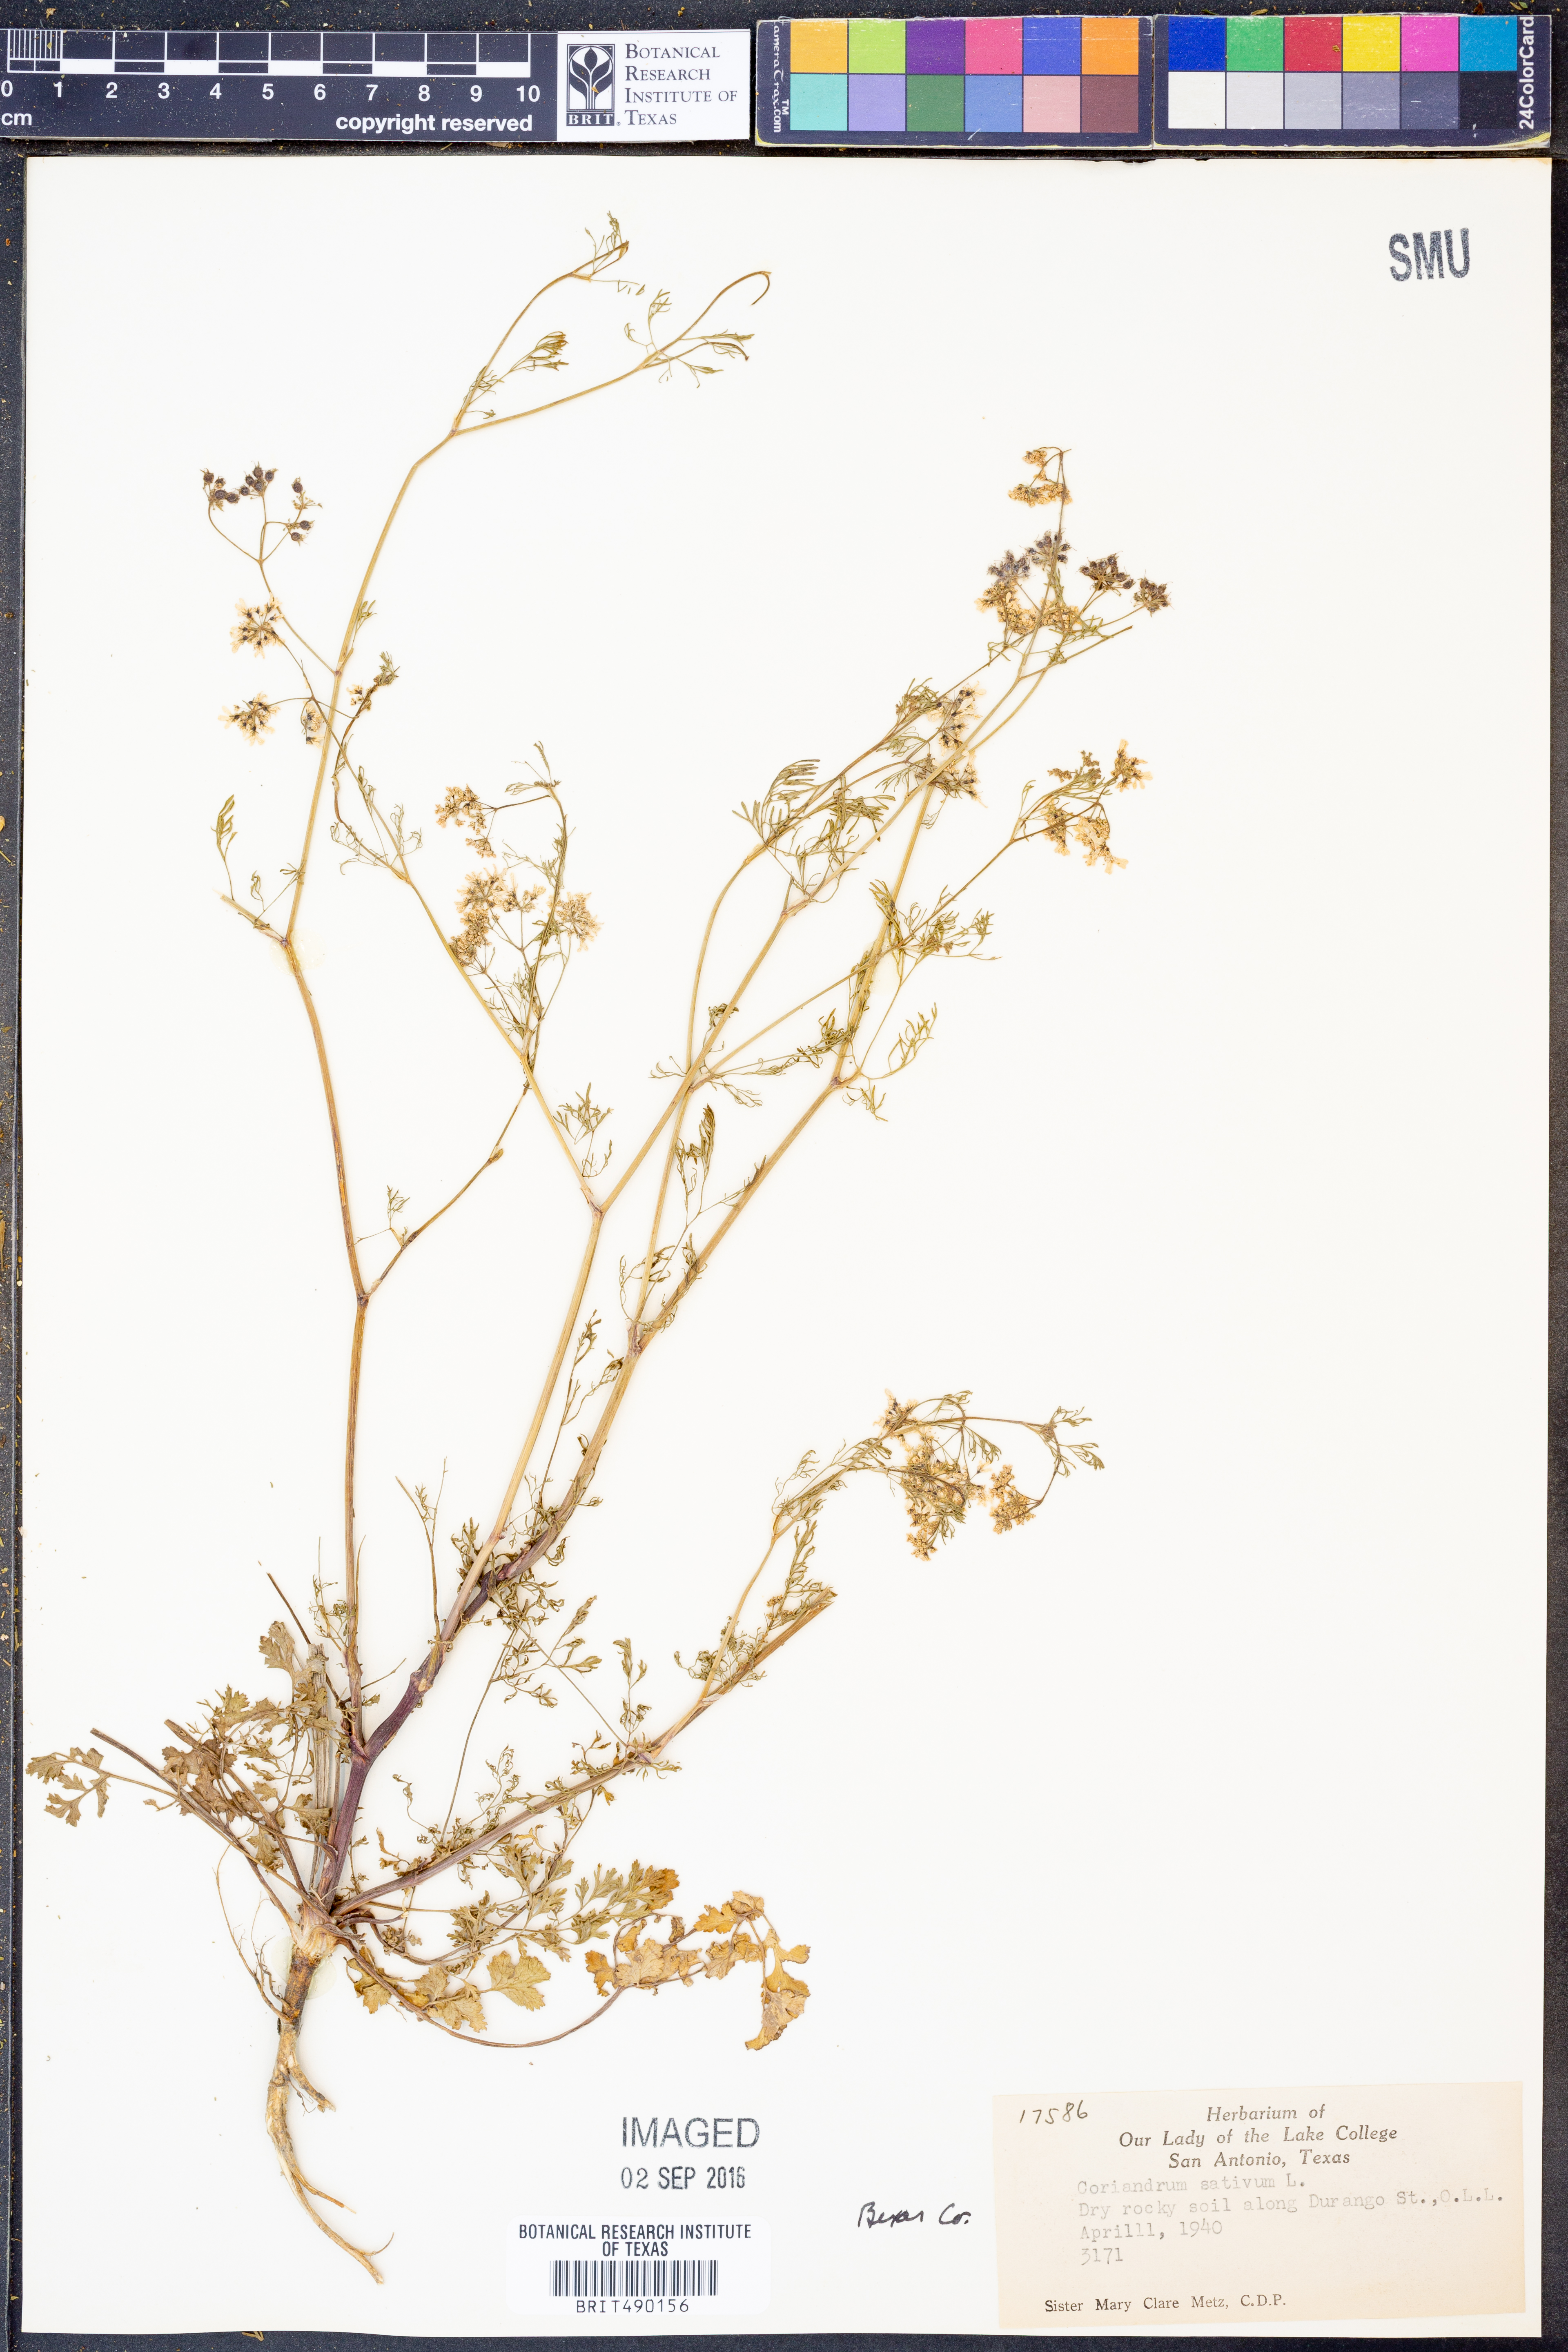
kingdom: Plantae
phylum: Tracheophyta
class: Magnoliopsida
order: Apiales
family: Apiaceae
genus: Coriandrum
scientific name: Coriandrum sativum
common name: Coriander
